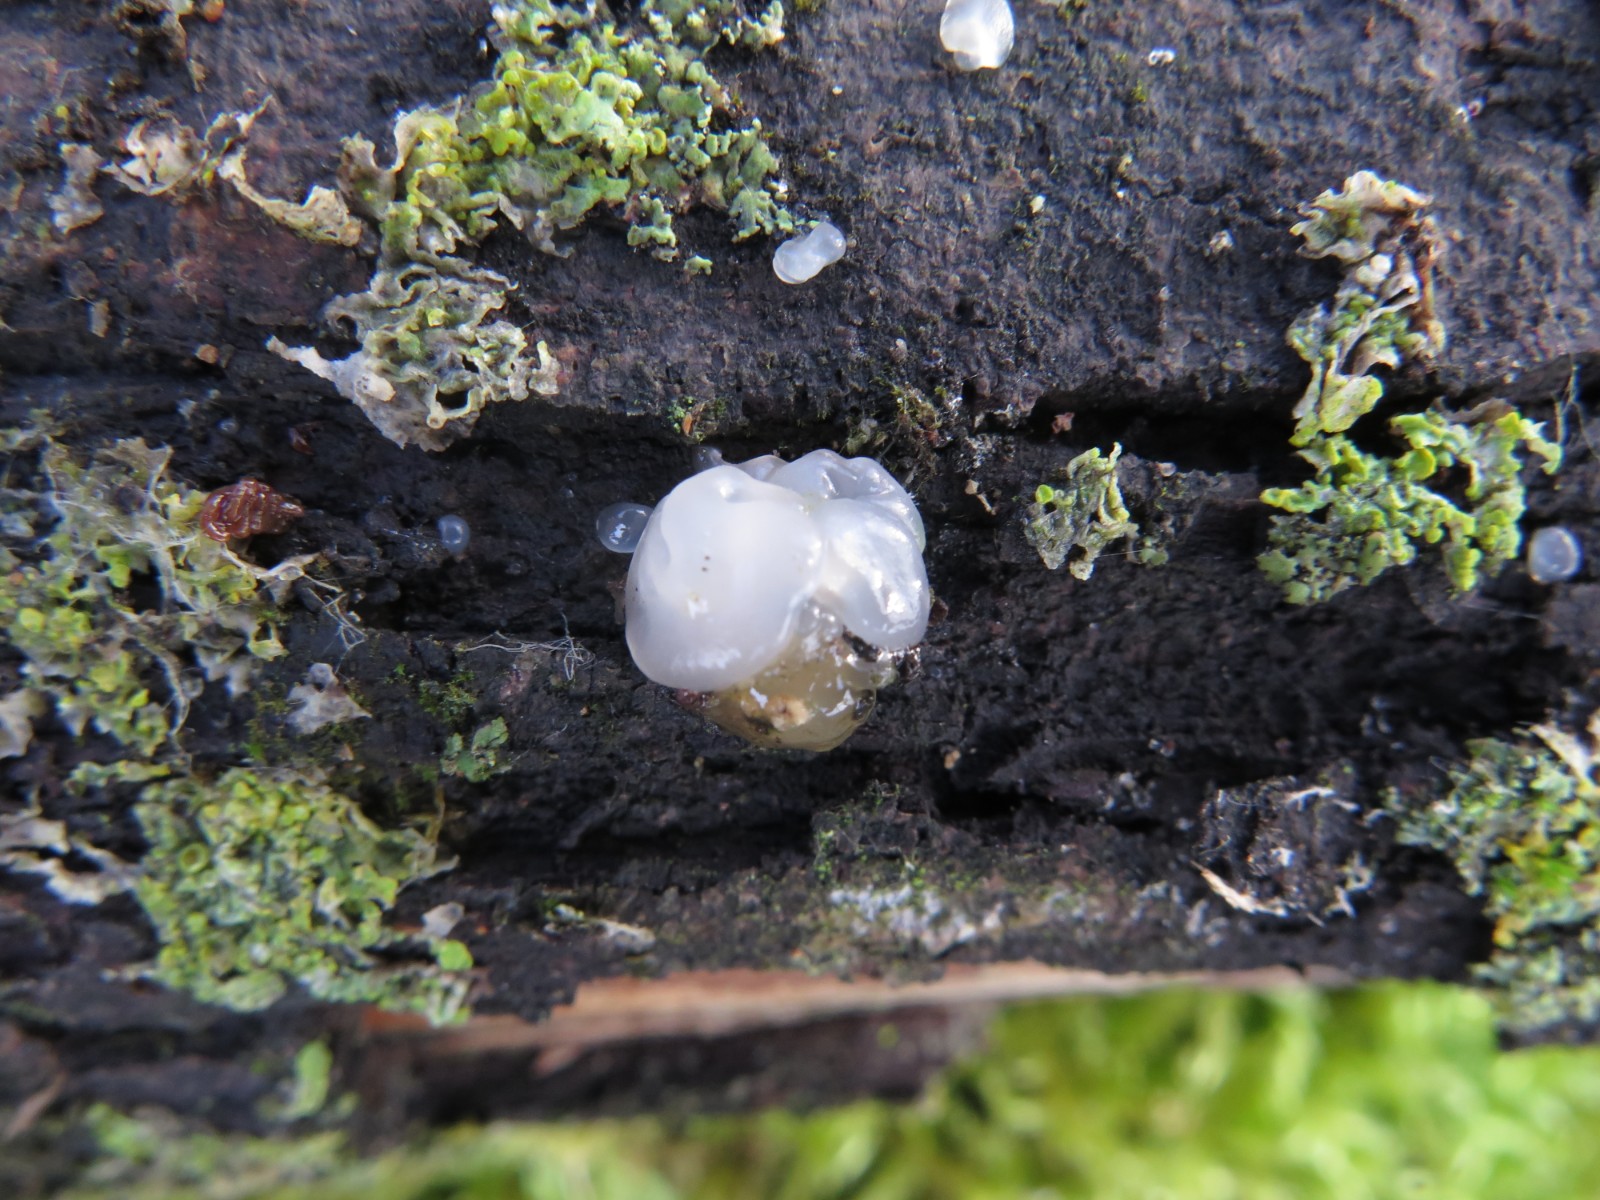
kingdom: Fungi
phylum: Basidiomycota
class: Agaricomycetes
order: Auriculariales
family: Hyaloriaceae
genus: Myxarium
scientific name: Myxarium nucleatum
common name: klar bævretop
